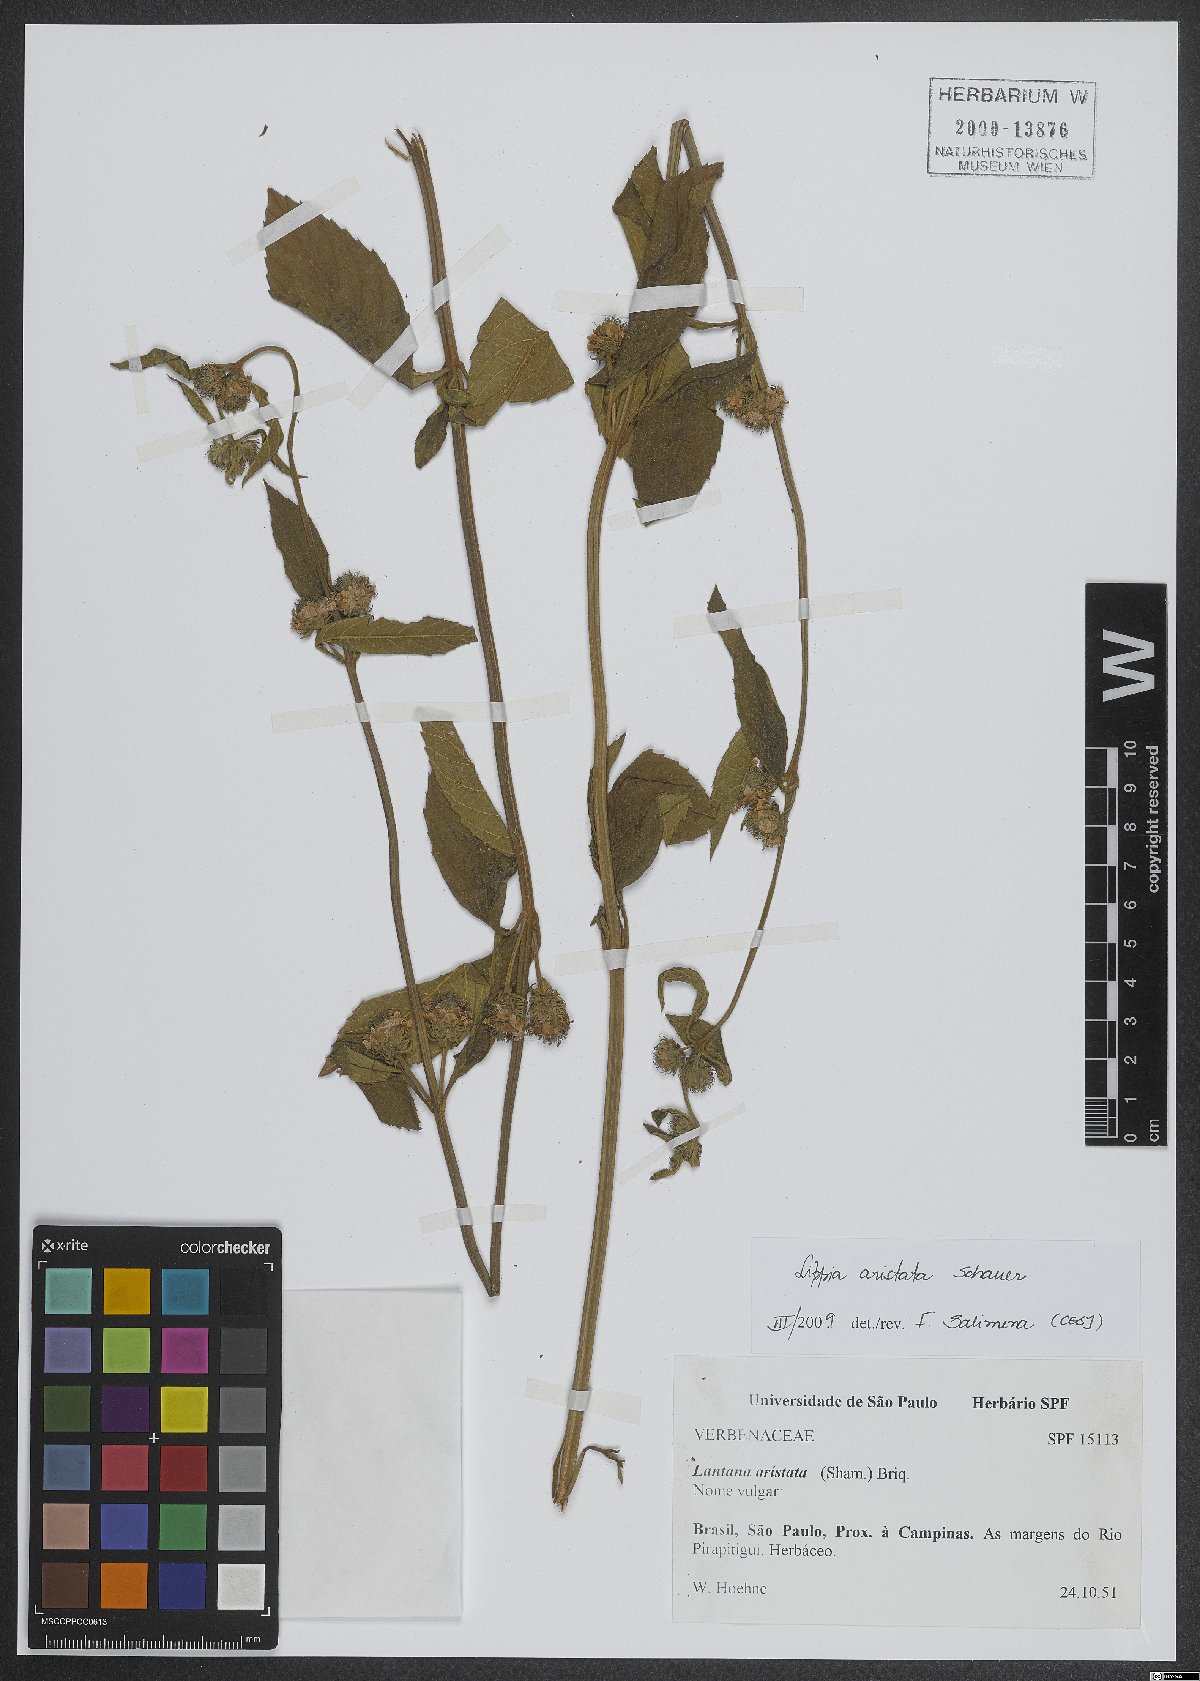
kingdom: Plantae
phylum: Tracheophyta
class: Magnoliopsida
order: Lamiales
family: Verbenaceae
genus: Lippia
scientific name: Lippia aristata
